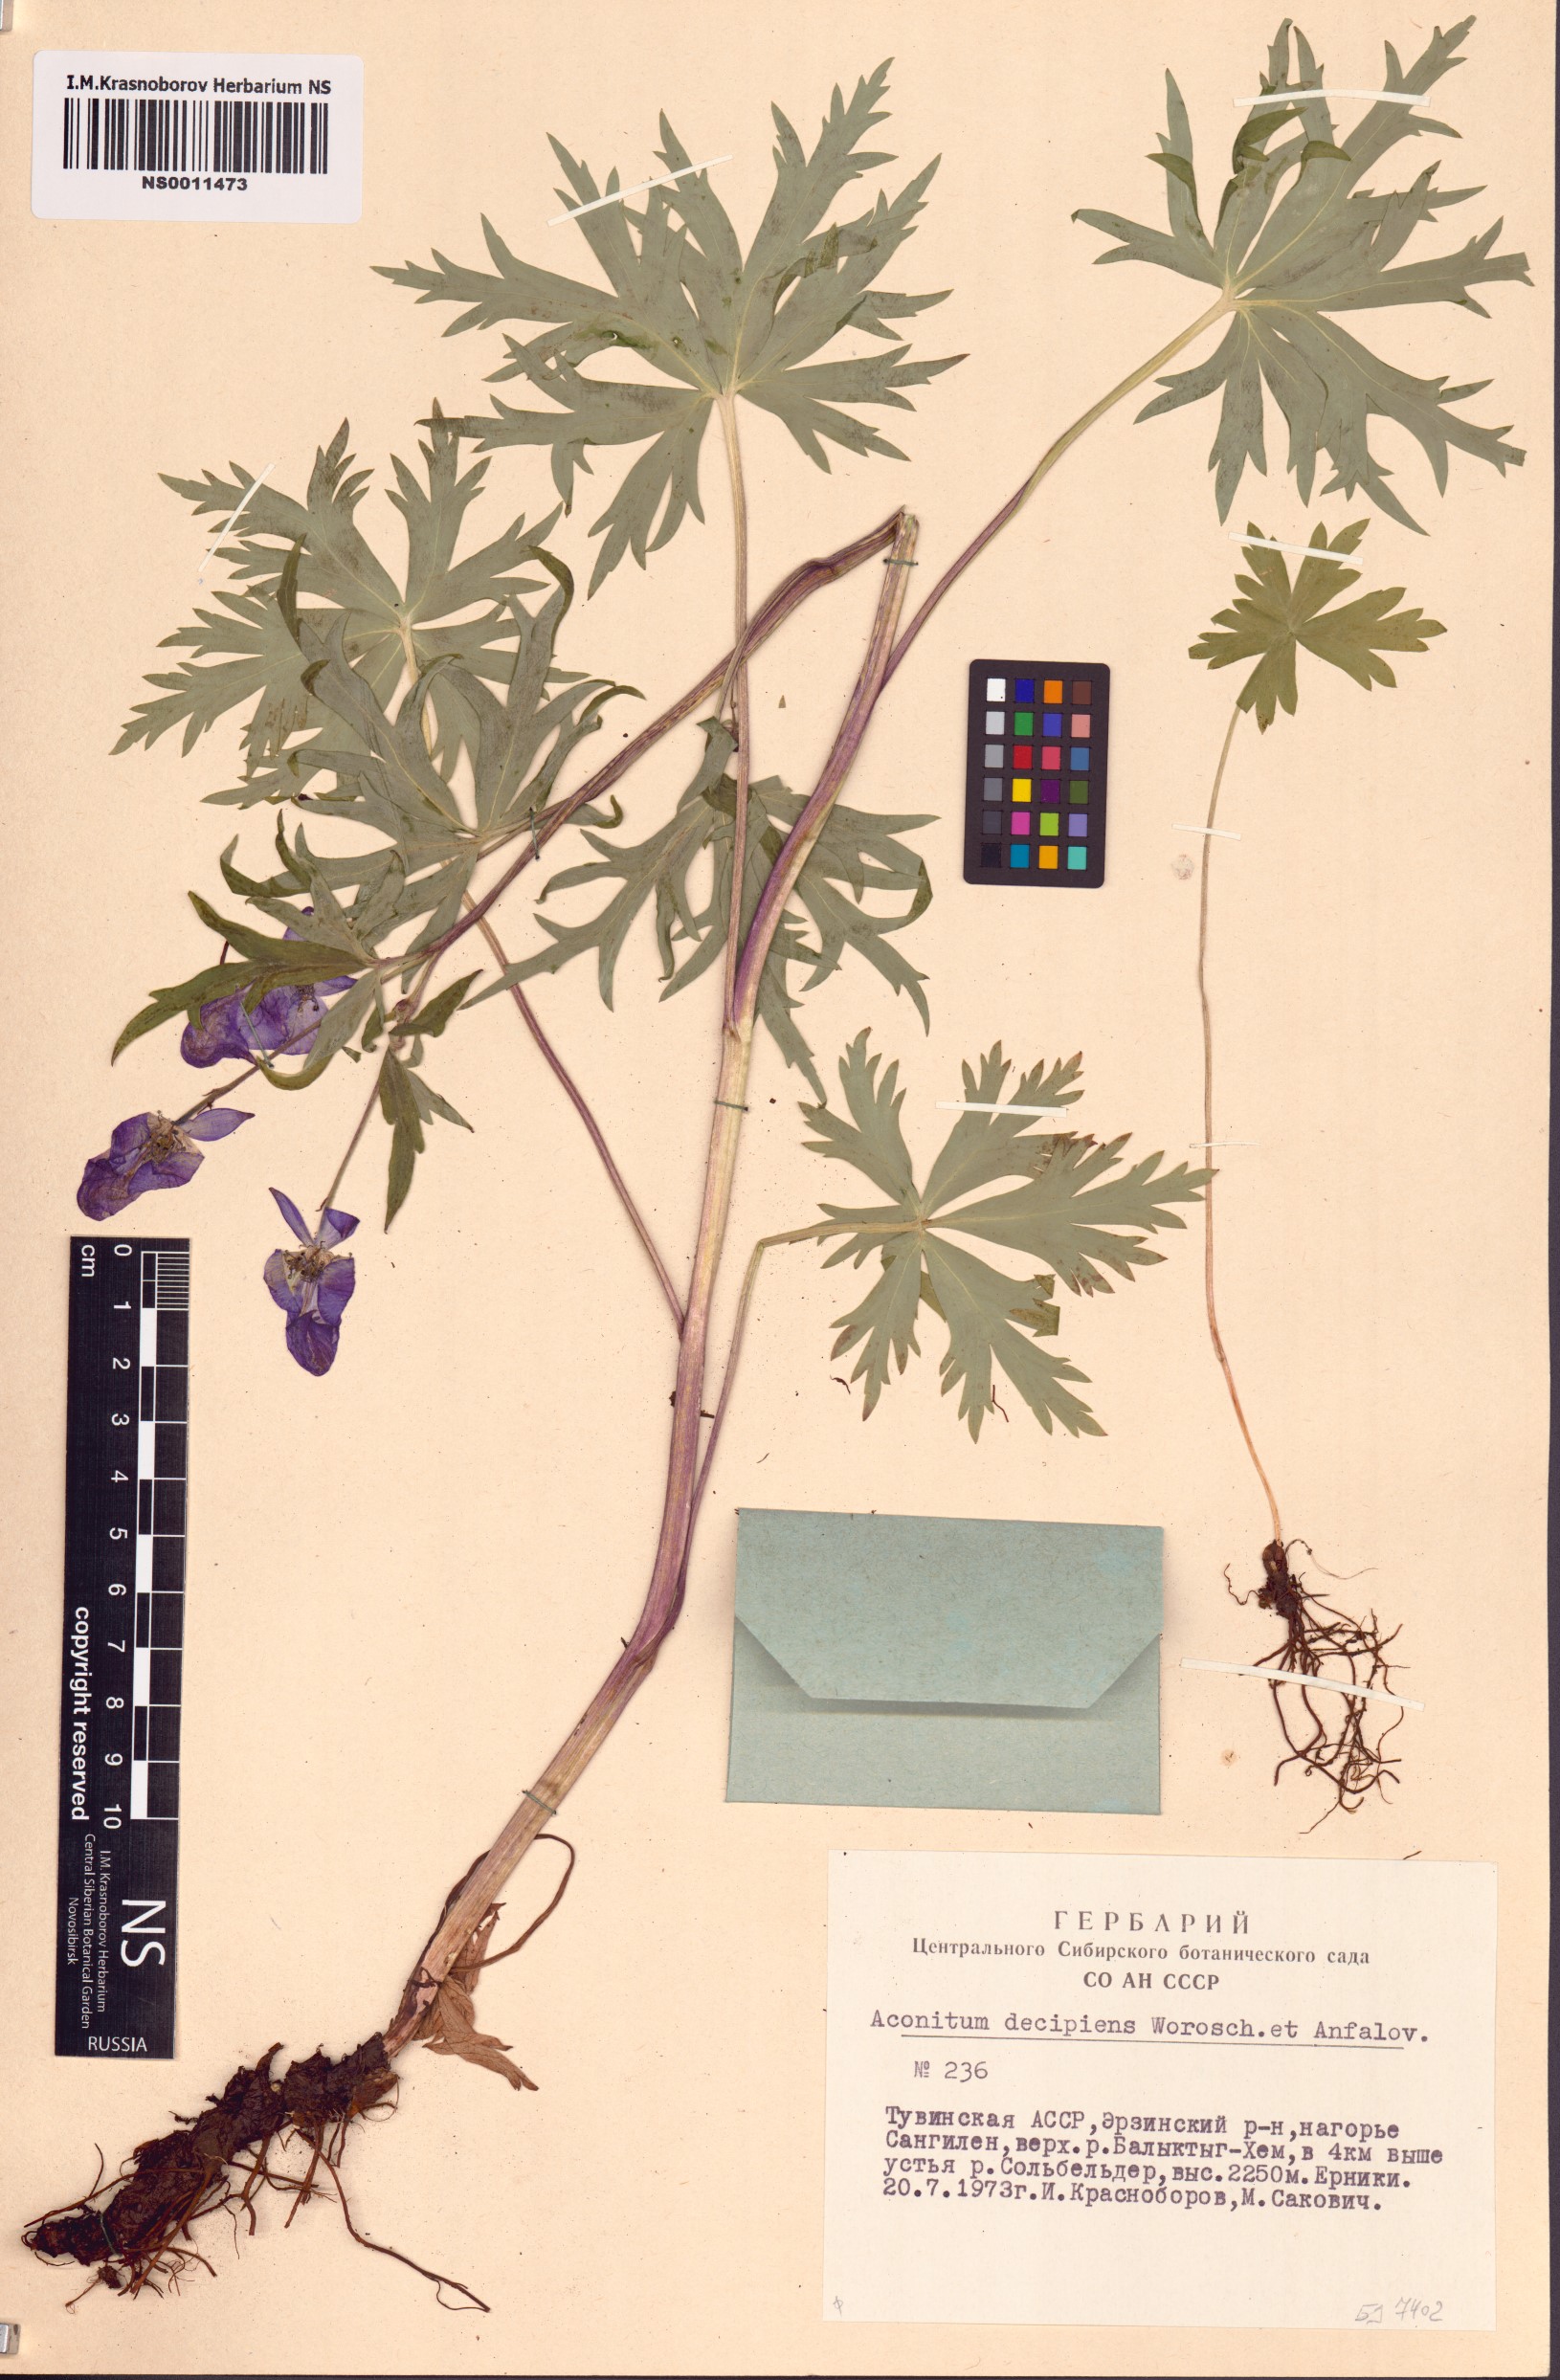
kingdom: Plantae
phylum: Tracheophyta
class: Magnoliopsida
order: Ranunculales
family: Ranunculaceae
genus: Aconitum
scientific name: Aconitum decipiens
